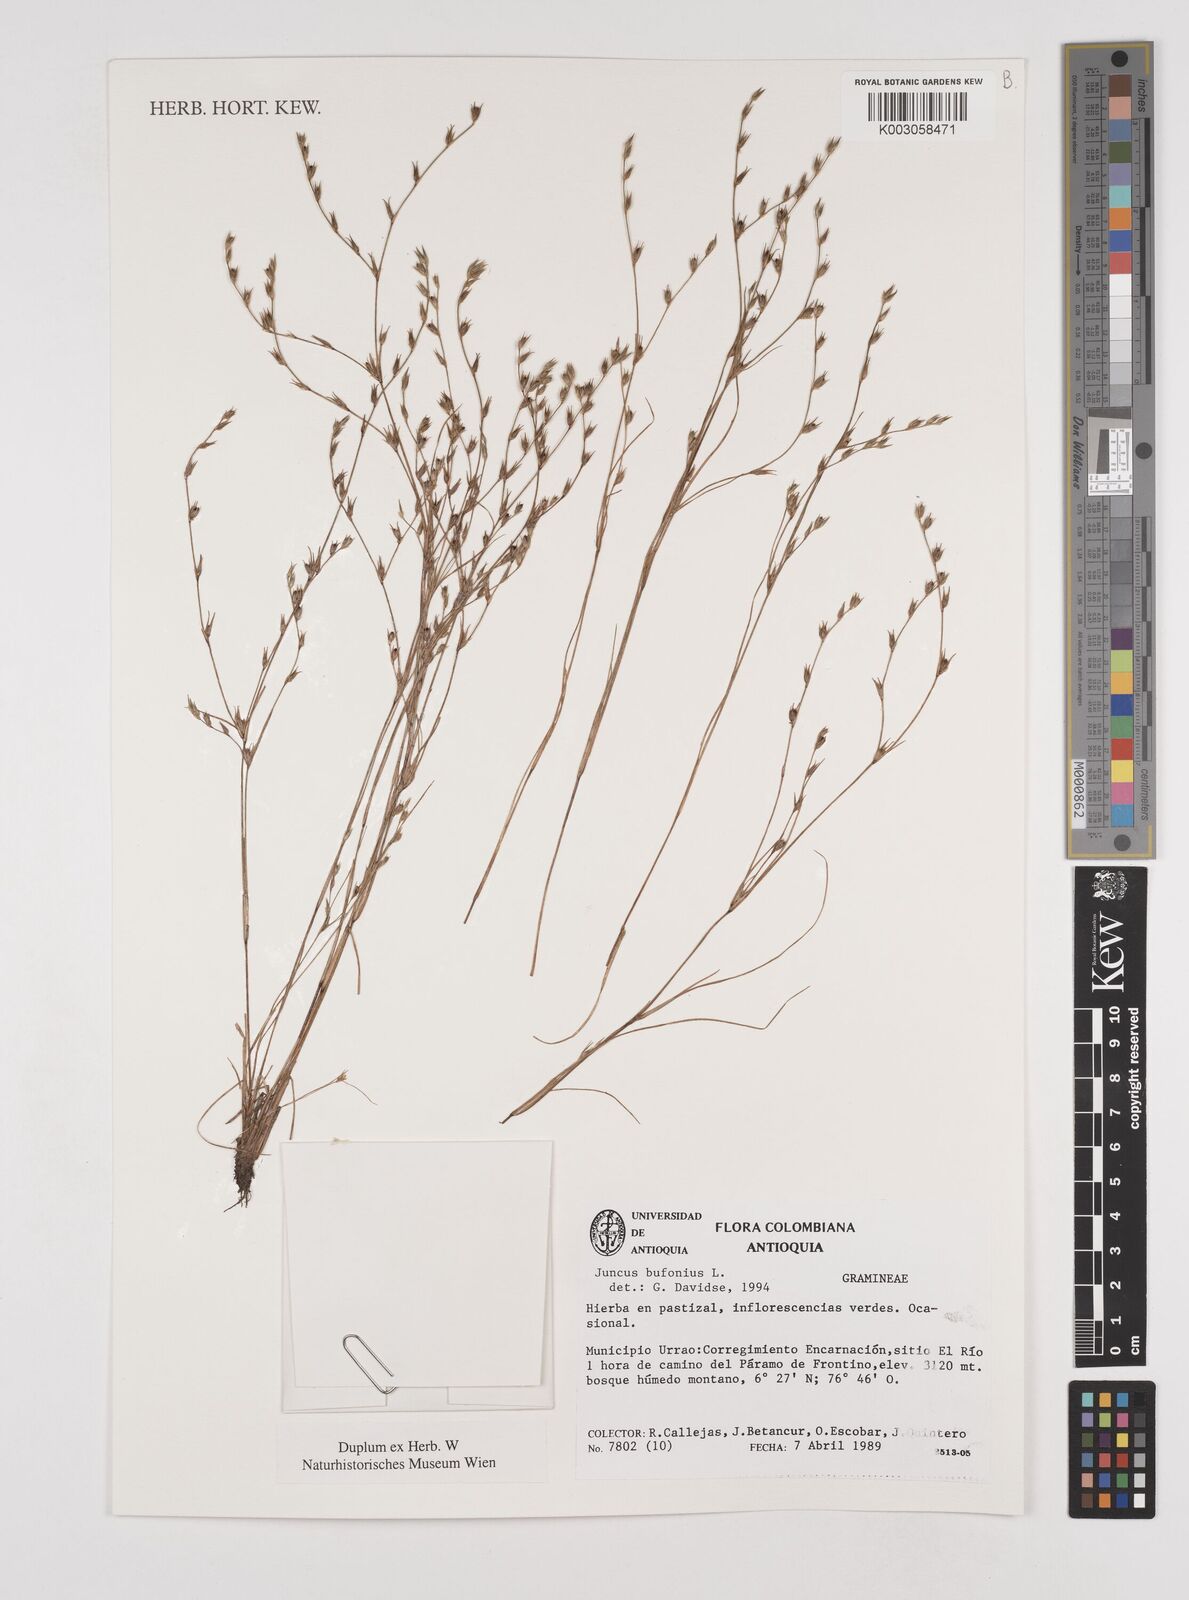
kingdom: Plantae
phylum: Tracheophyta
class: Liliopsida
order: Poales
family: Juncaceae
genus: Juncus
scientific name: Juncus bufonius
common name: Toad rush
